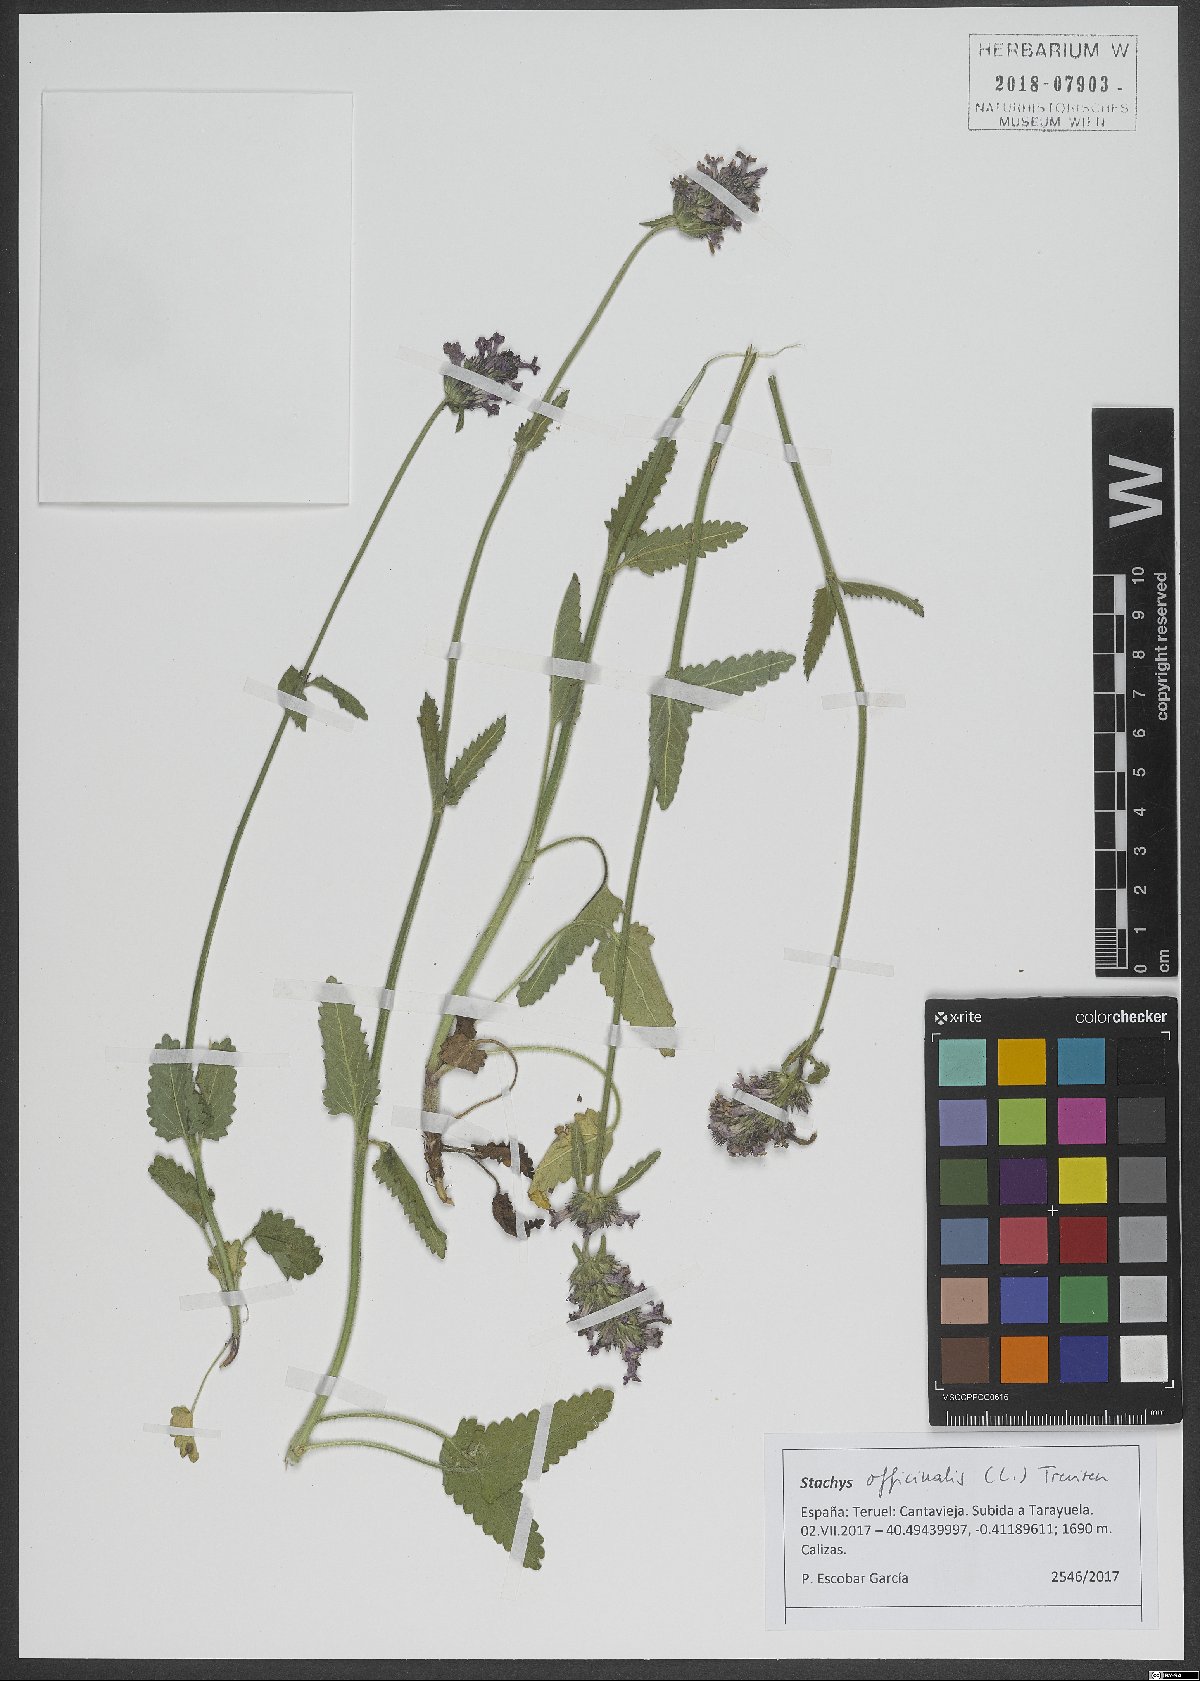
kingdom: Plantae
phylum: Tracheophyta
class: Magnoliopsida
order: Lamiales
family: Lamiaceae
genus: Betonica
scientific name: Betonica officinalis
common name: Bishop's-wort
